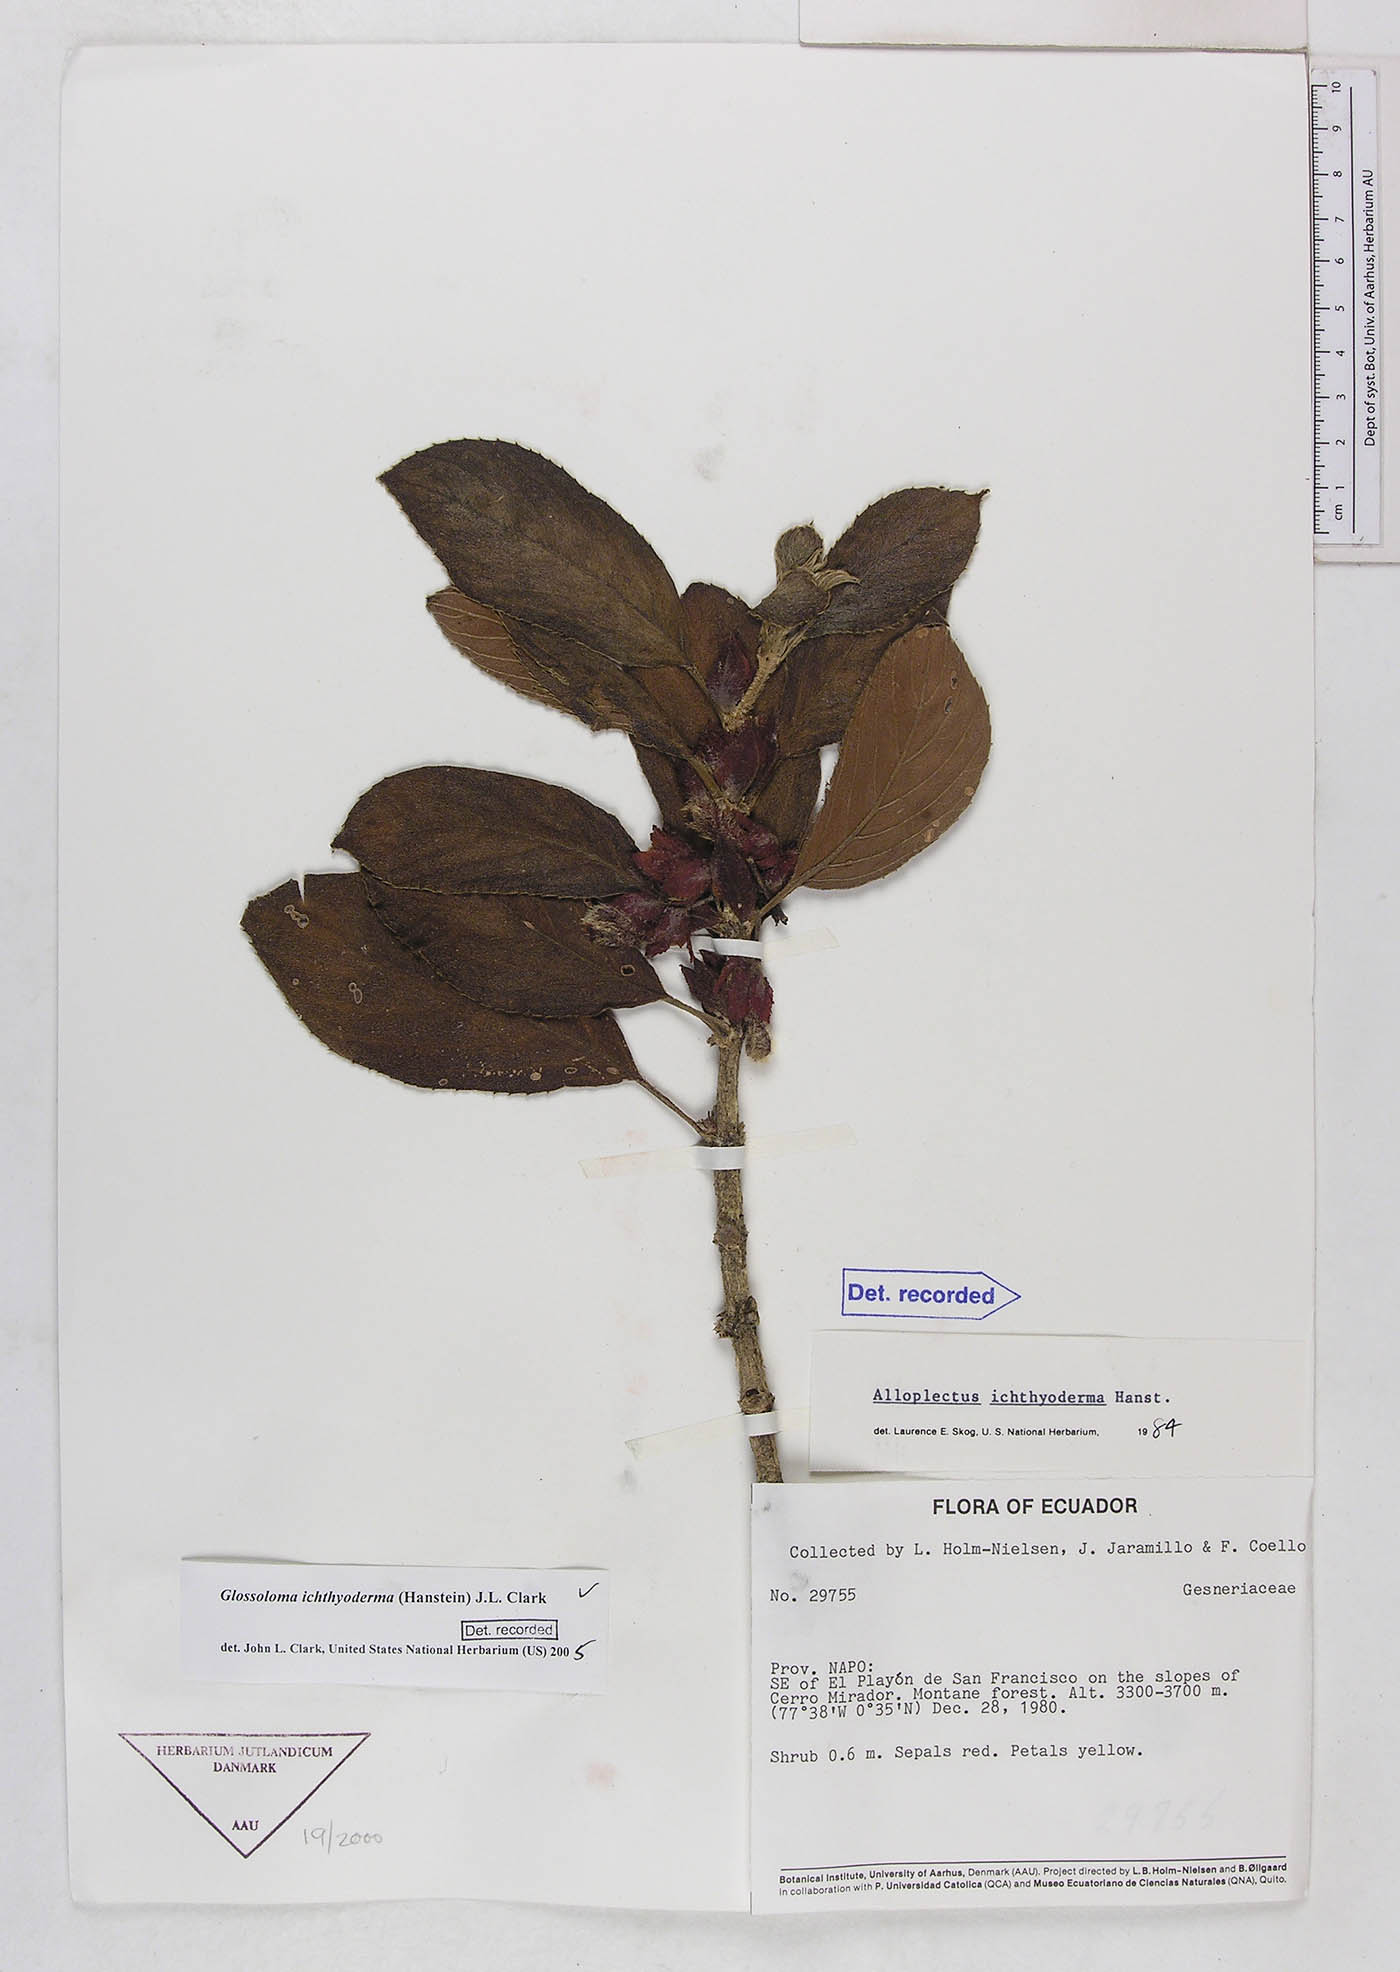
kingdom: Plantae
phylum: Tracheophyta
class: Magnoliopsida
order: Lamiales
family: Gesneriaceae
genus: Glossoloma
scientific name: Glossoloma ichthyoderma
